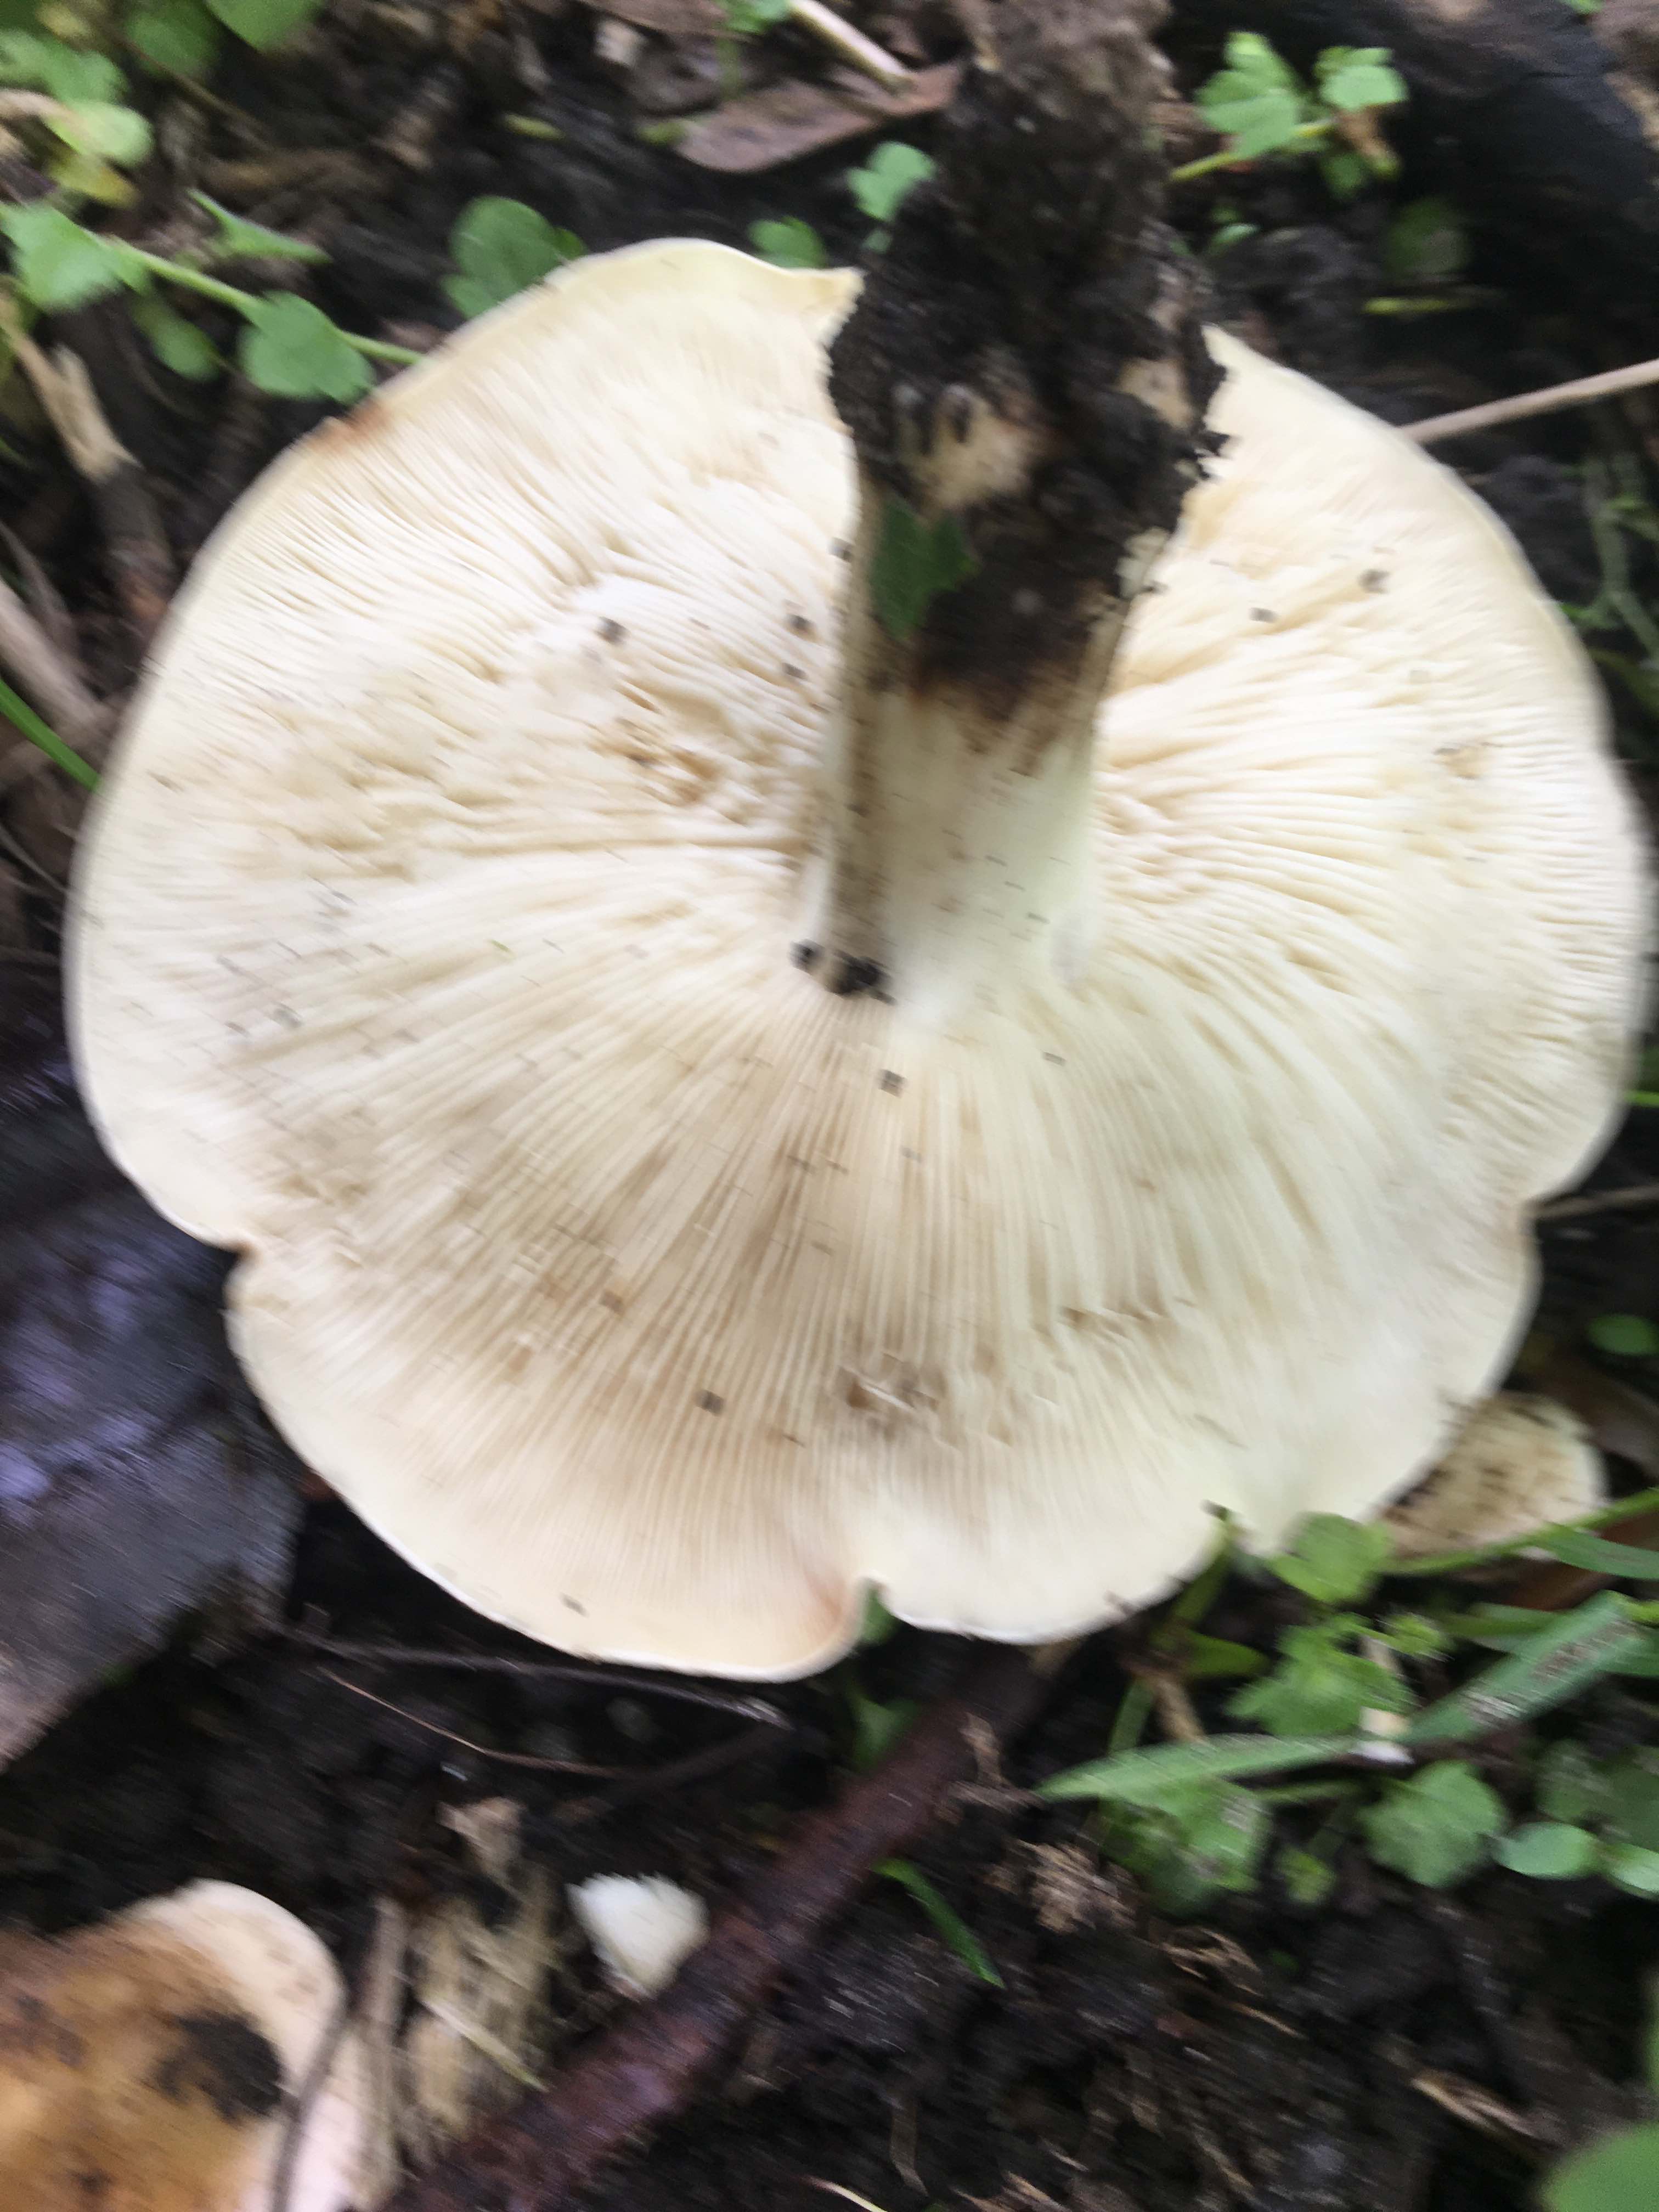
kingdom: Fungi
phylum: Basidiomycota
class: Agaricomycetes
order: Agaricales
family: Lyophyllaceae
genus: Calocybe
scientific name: Calocybe gambosa
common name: vårmusseron
